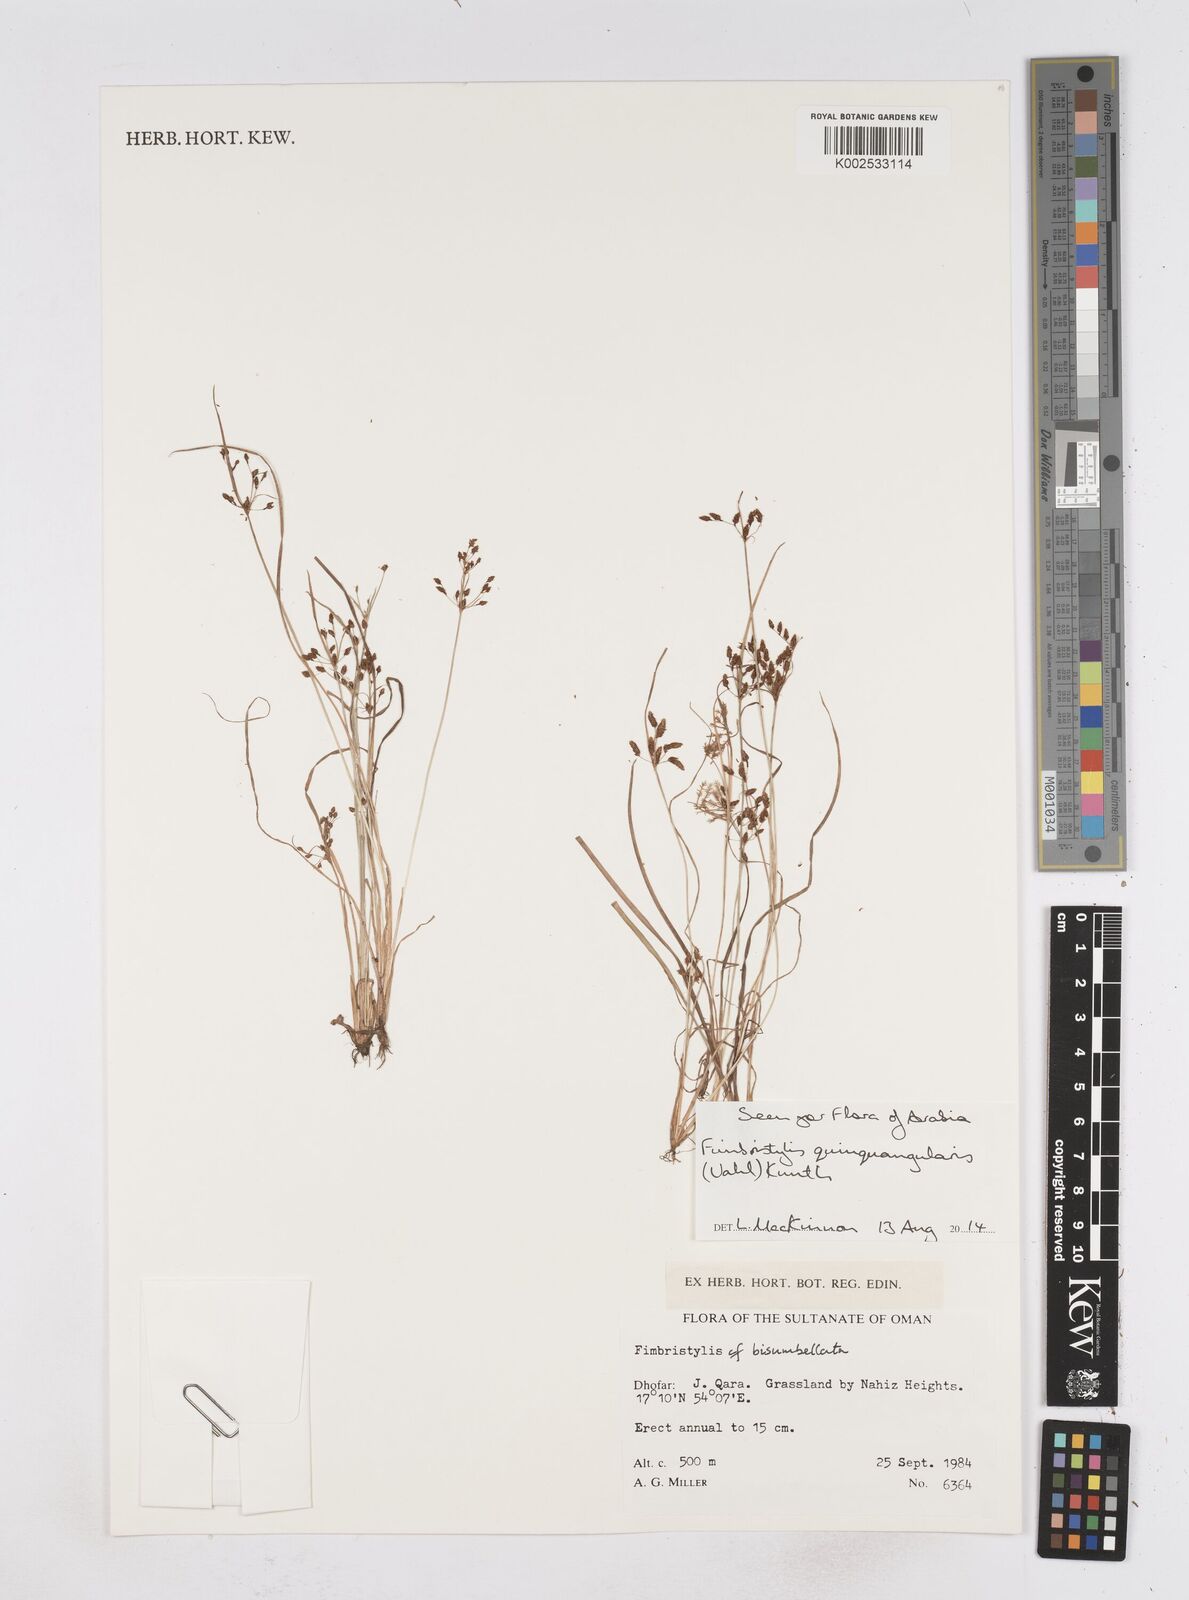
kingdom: Plantae
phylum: Tracheophyta
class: Liliopsida
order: Poales
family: Cyperaceae
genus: Fimbristylis
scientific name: Fimbristylis quinquangularis
